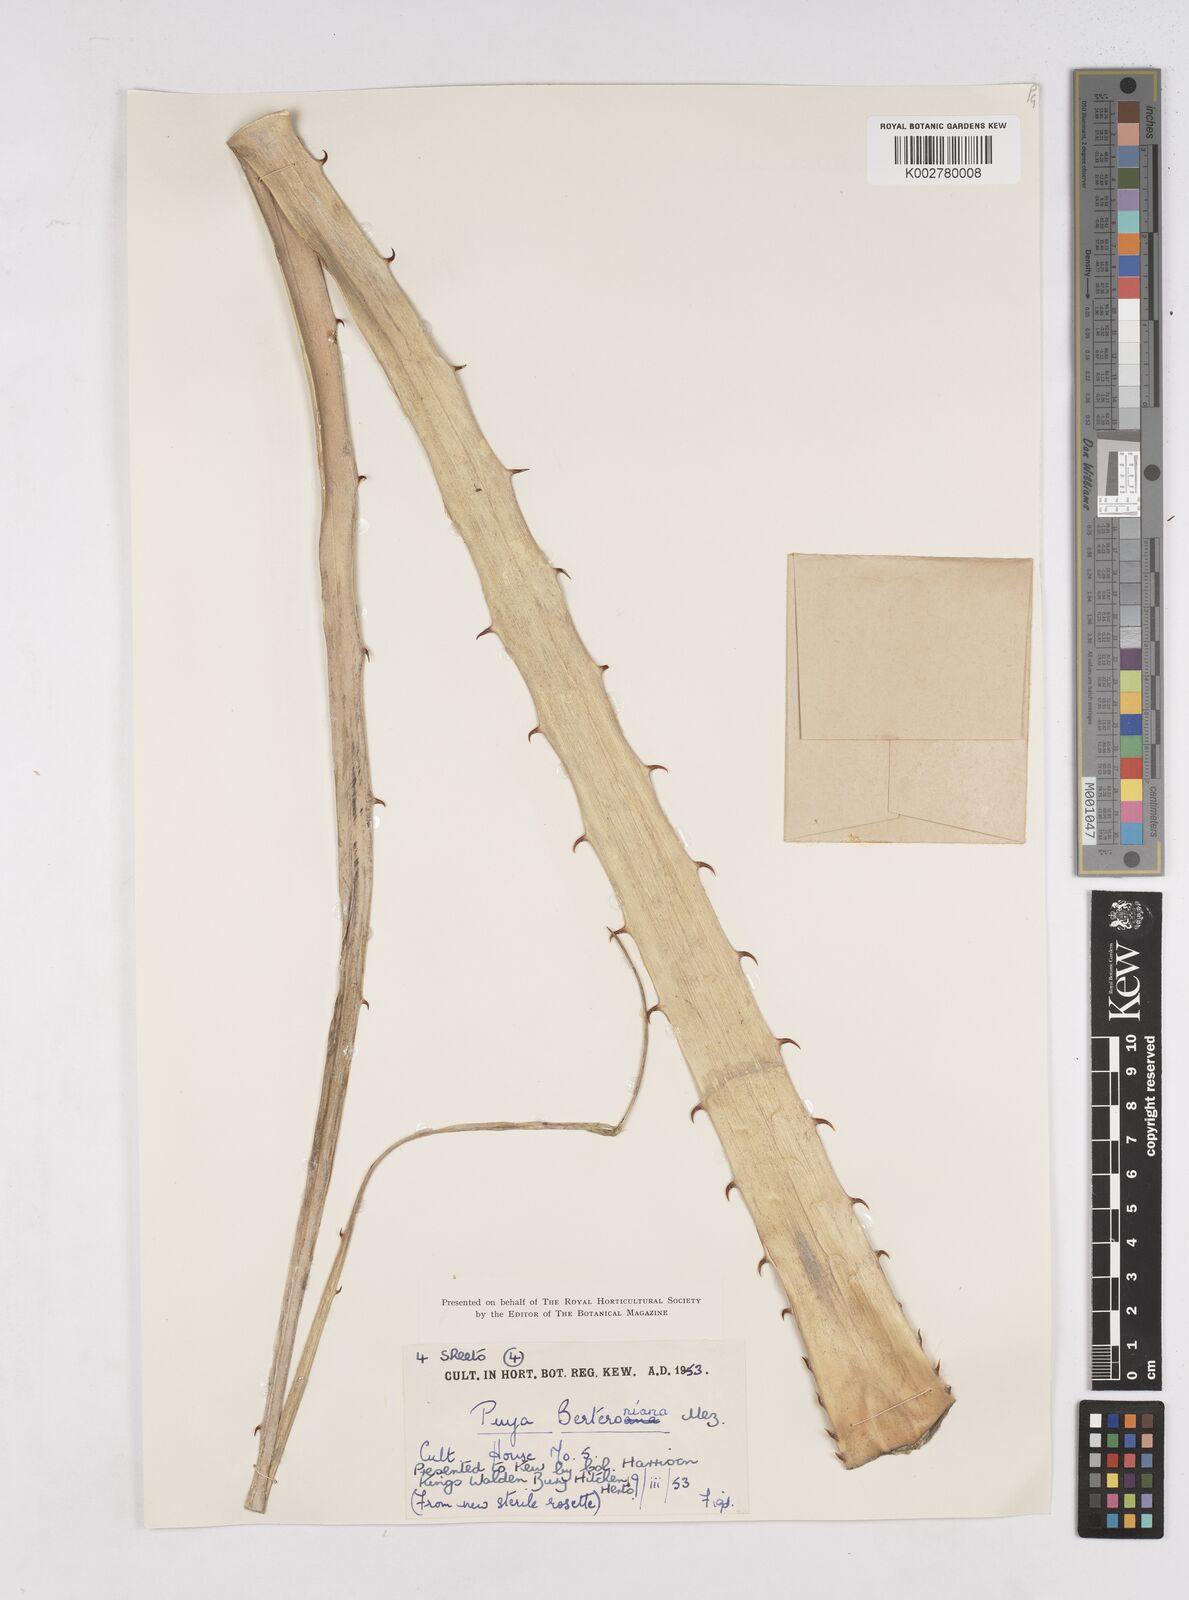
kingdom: Plantae
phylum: Tracheophyta
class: Liliopsida
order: Poales
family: Bromeliaceae
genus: Puya
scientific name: Puya berteroniana
